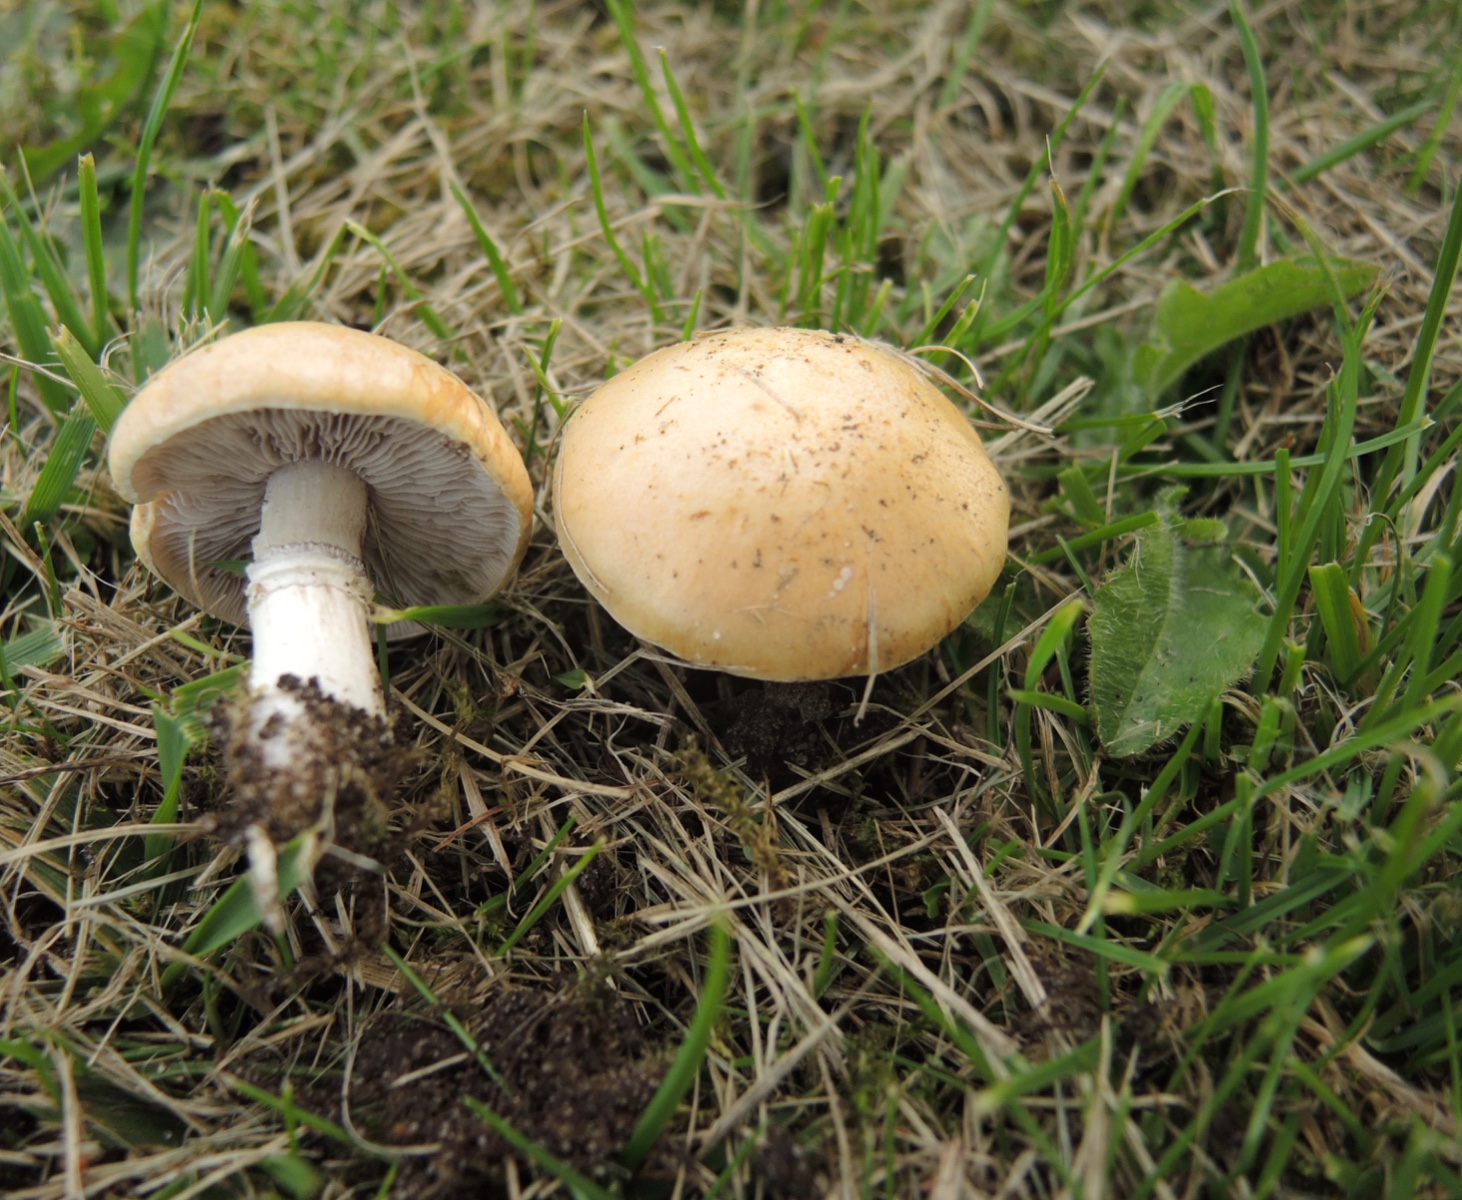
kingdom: Fungi
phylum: Basidiomycota
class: Agaricomycetes
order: Agaricales
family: Hymenogastraceae
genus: Psilocybe
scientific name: Psilocybe coronilla
